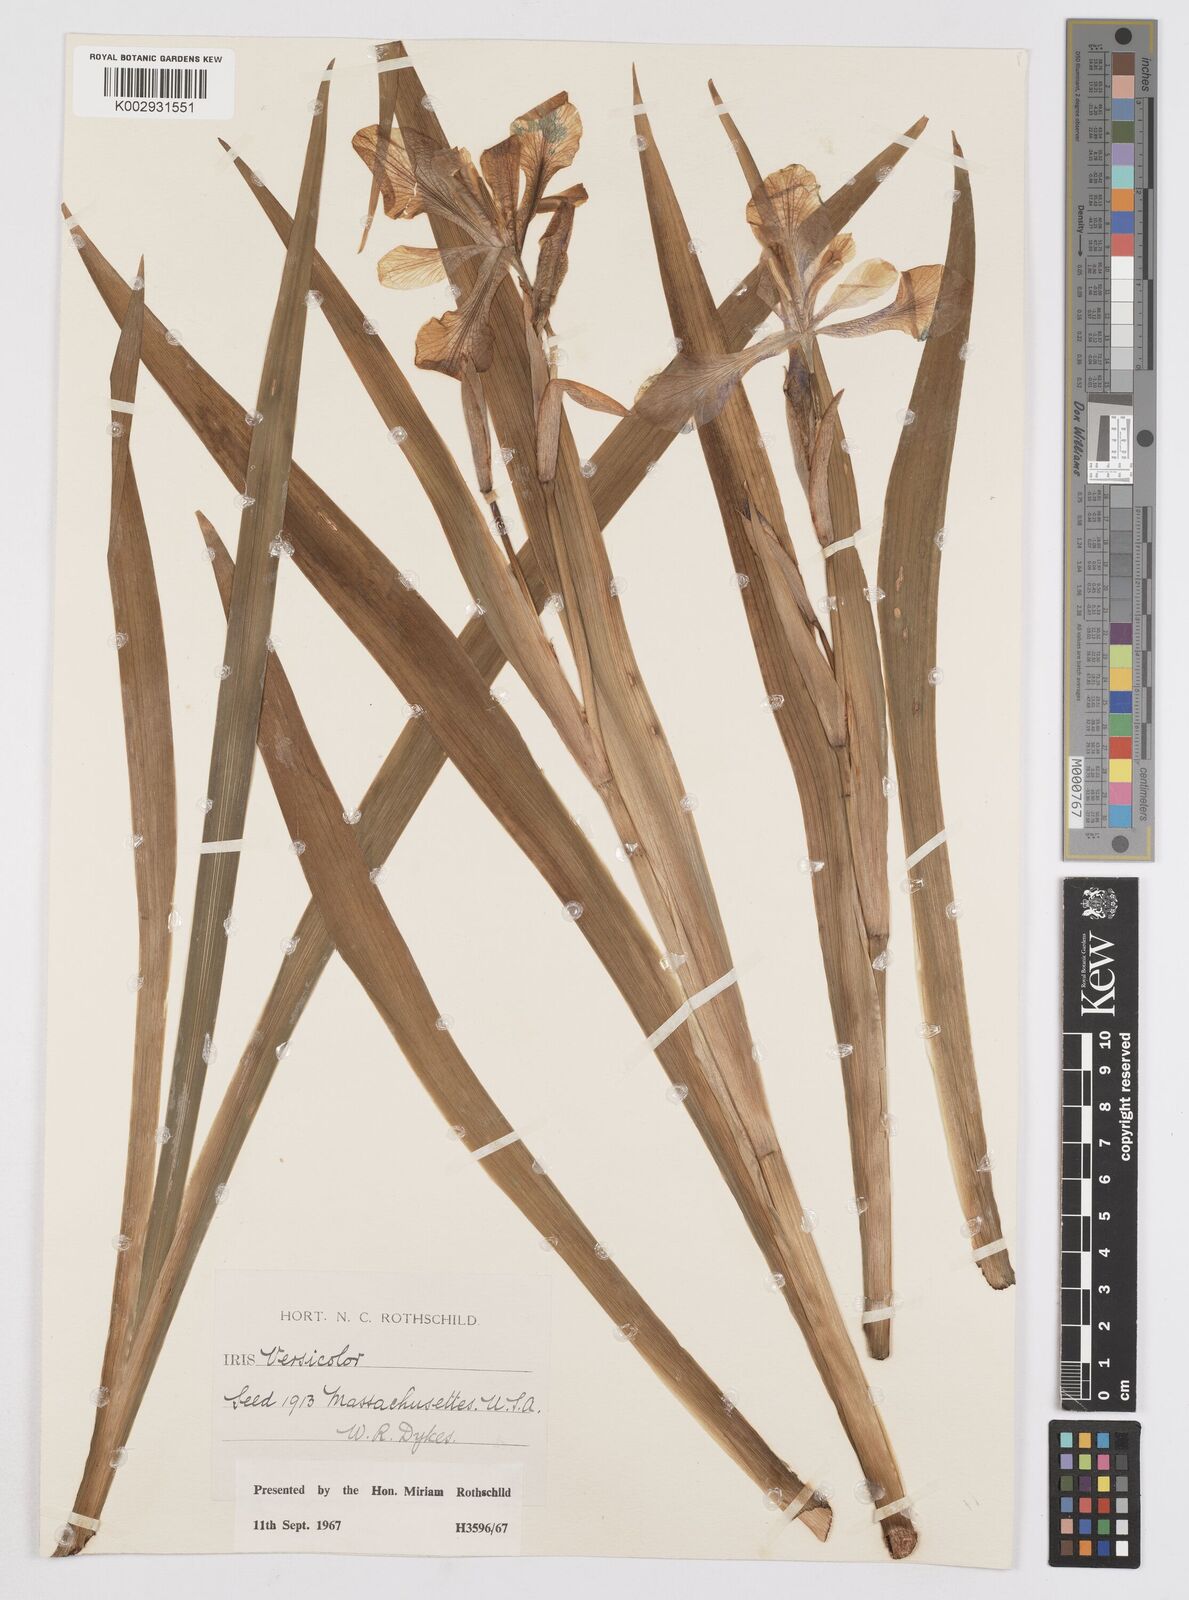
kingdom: Plantae
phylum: Tracheophyta
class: Liliopsida
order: Asparagales
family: Iridaceae
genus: Iris
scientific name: Iris versicolor
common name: Purple iris
